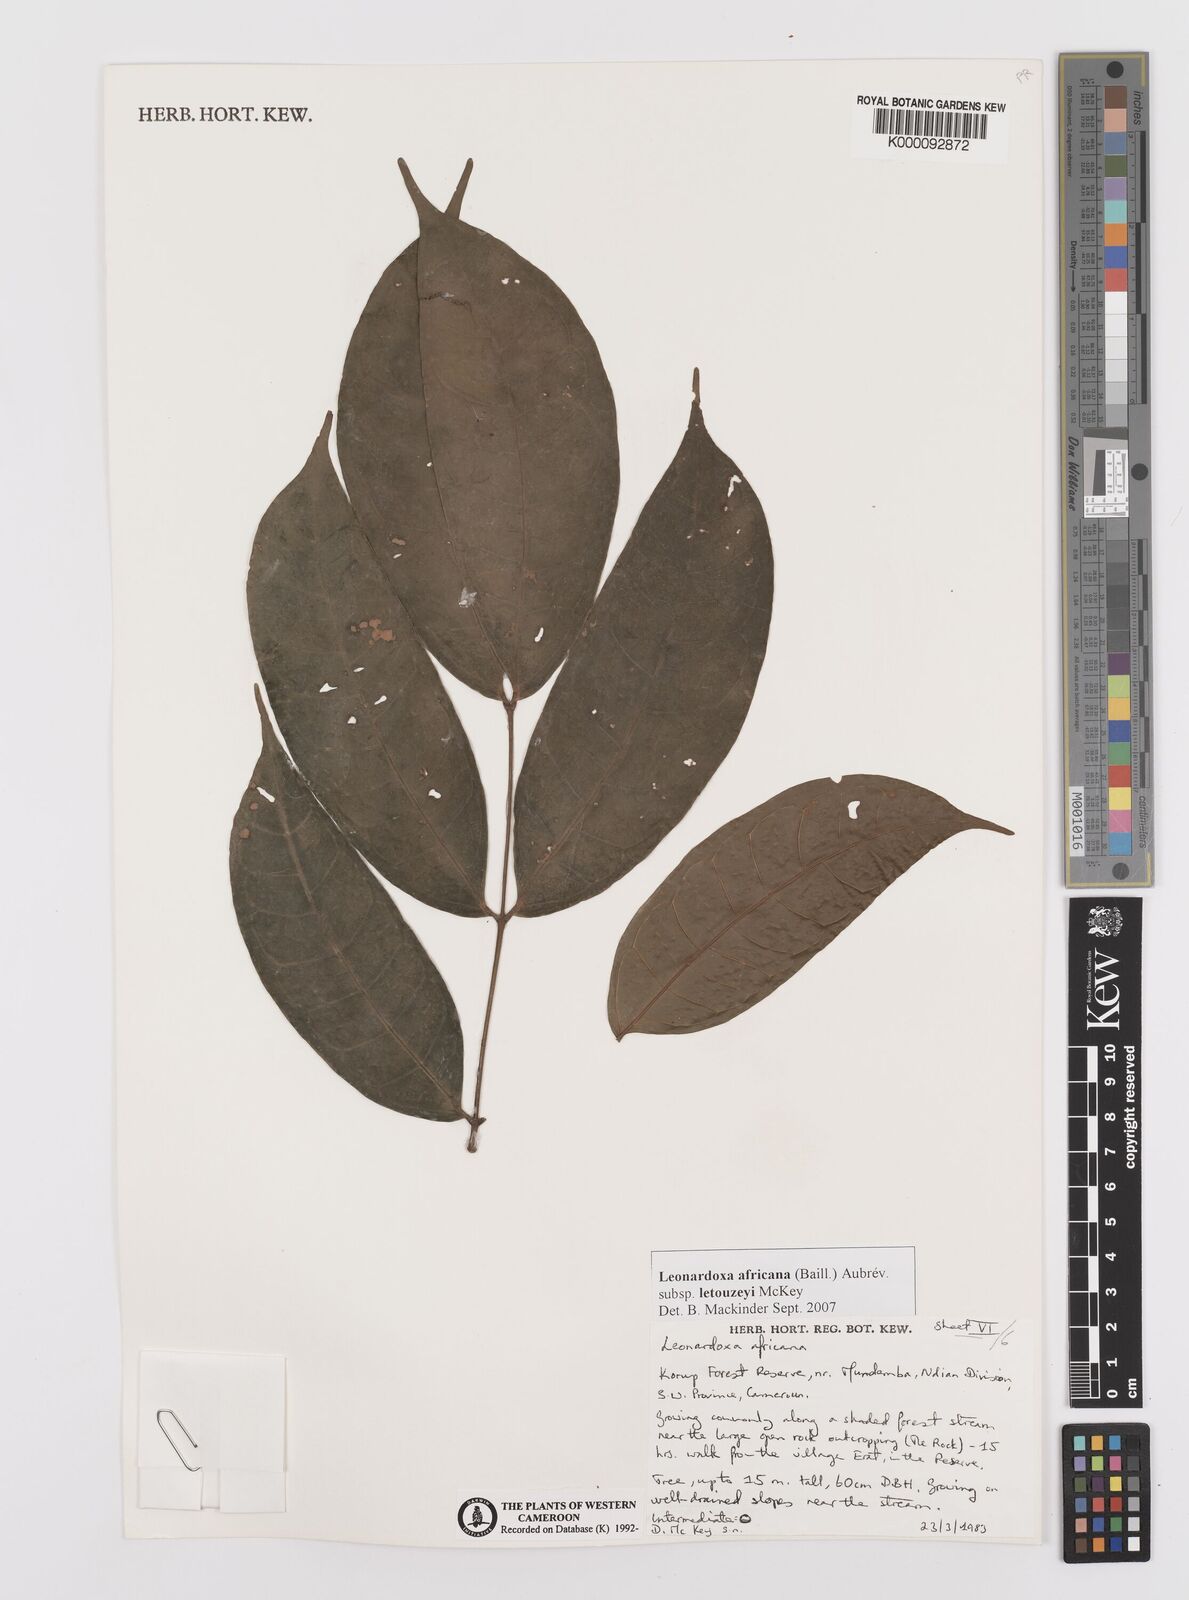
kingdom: Plantae
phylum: Tracheophyta
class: Magnoliopsida
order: Fabales
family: Fabaceae
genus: Leonardoxa
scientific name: Leonardoxa
